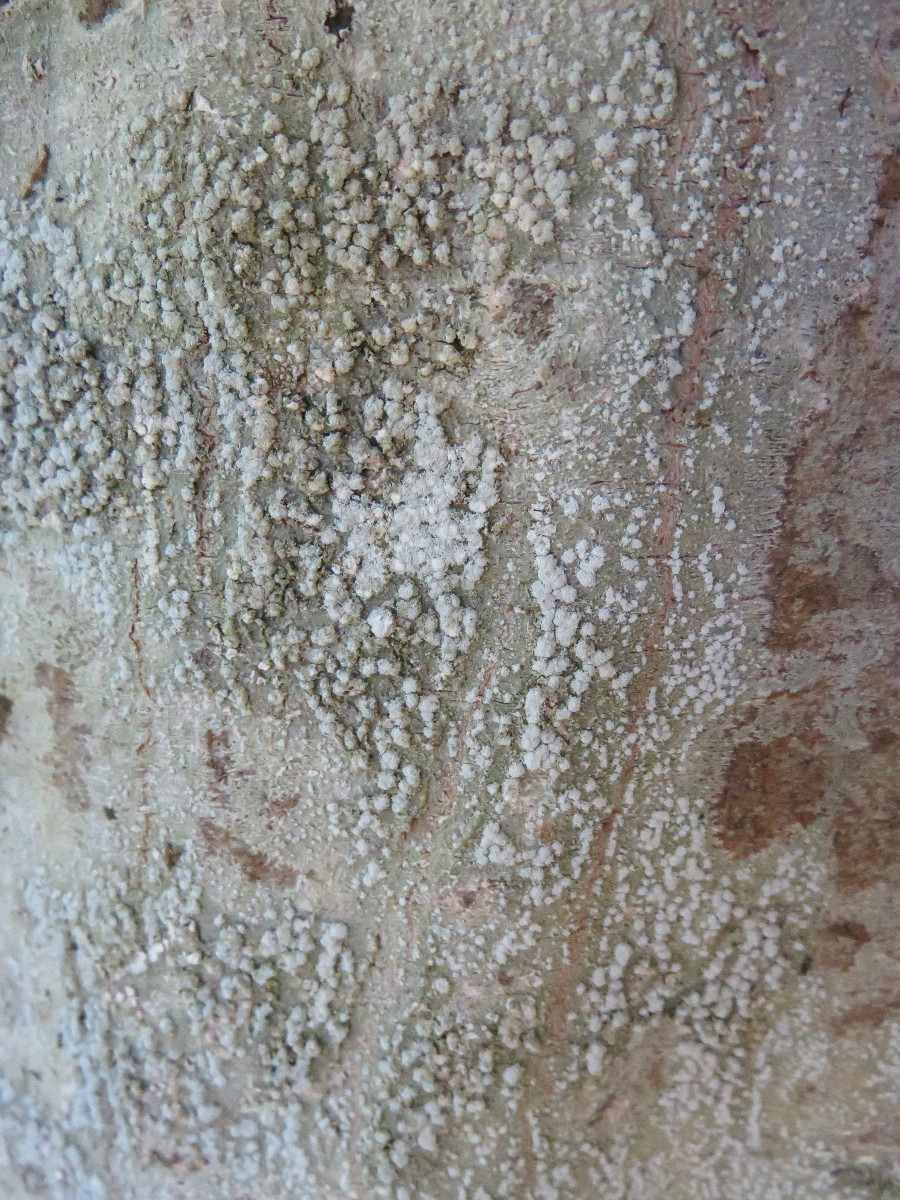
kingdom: Fungi
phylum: Ascomycota
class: Lecanoromycetes
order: Pertusariales
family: Pertusariaceae
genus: Lepra
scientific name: Lepra amara
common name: bitter prikvortelav
